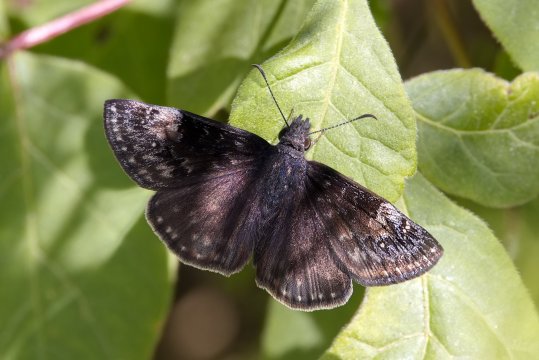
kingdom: Animalia
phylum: Arthropoda
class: Insecta
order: Lepidoptera
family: Hesperiidae
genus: Gesta
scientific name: Gesta
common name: Columbine Duskywing
